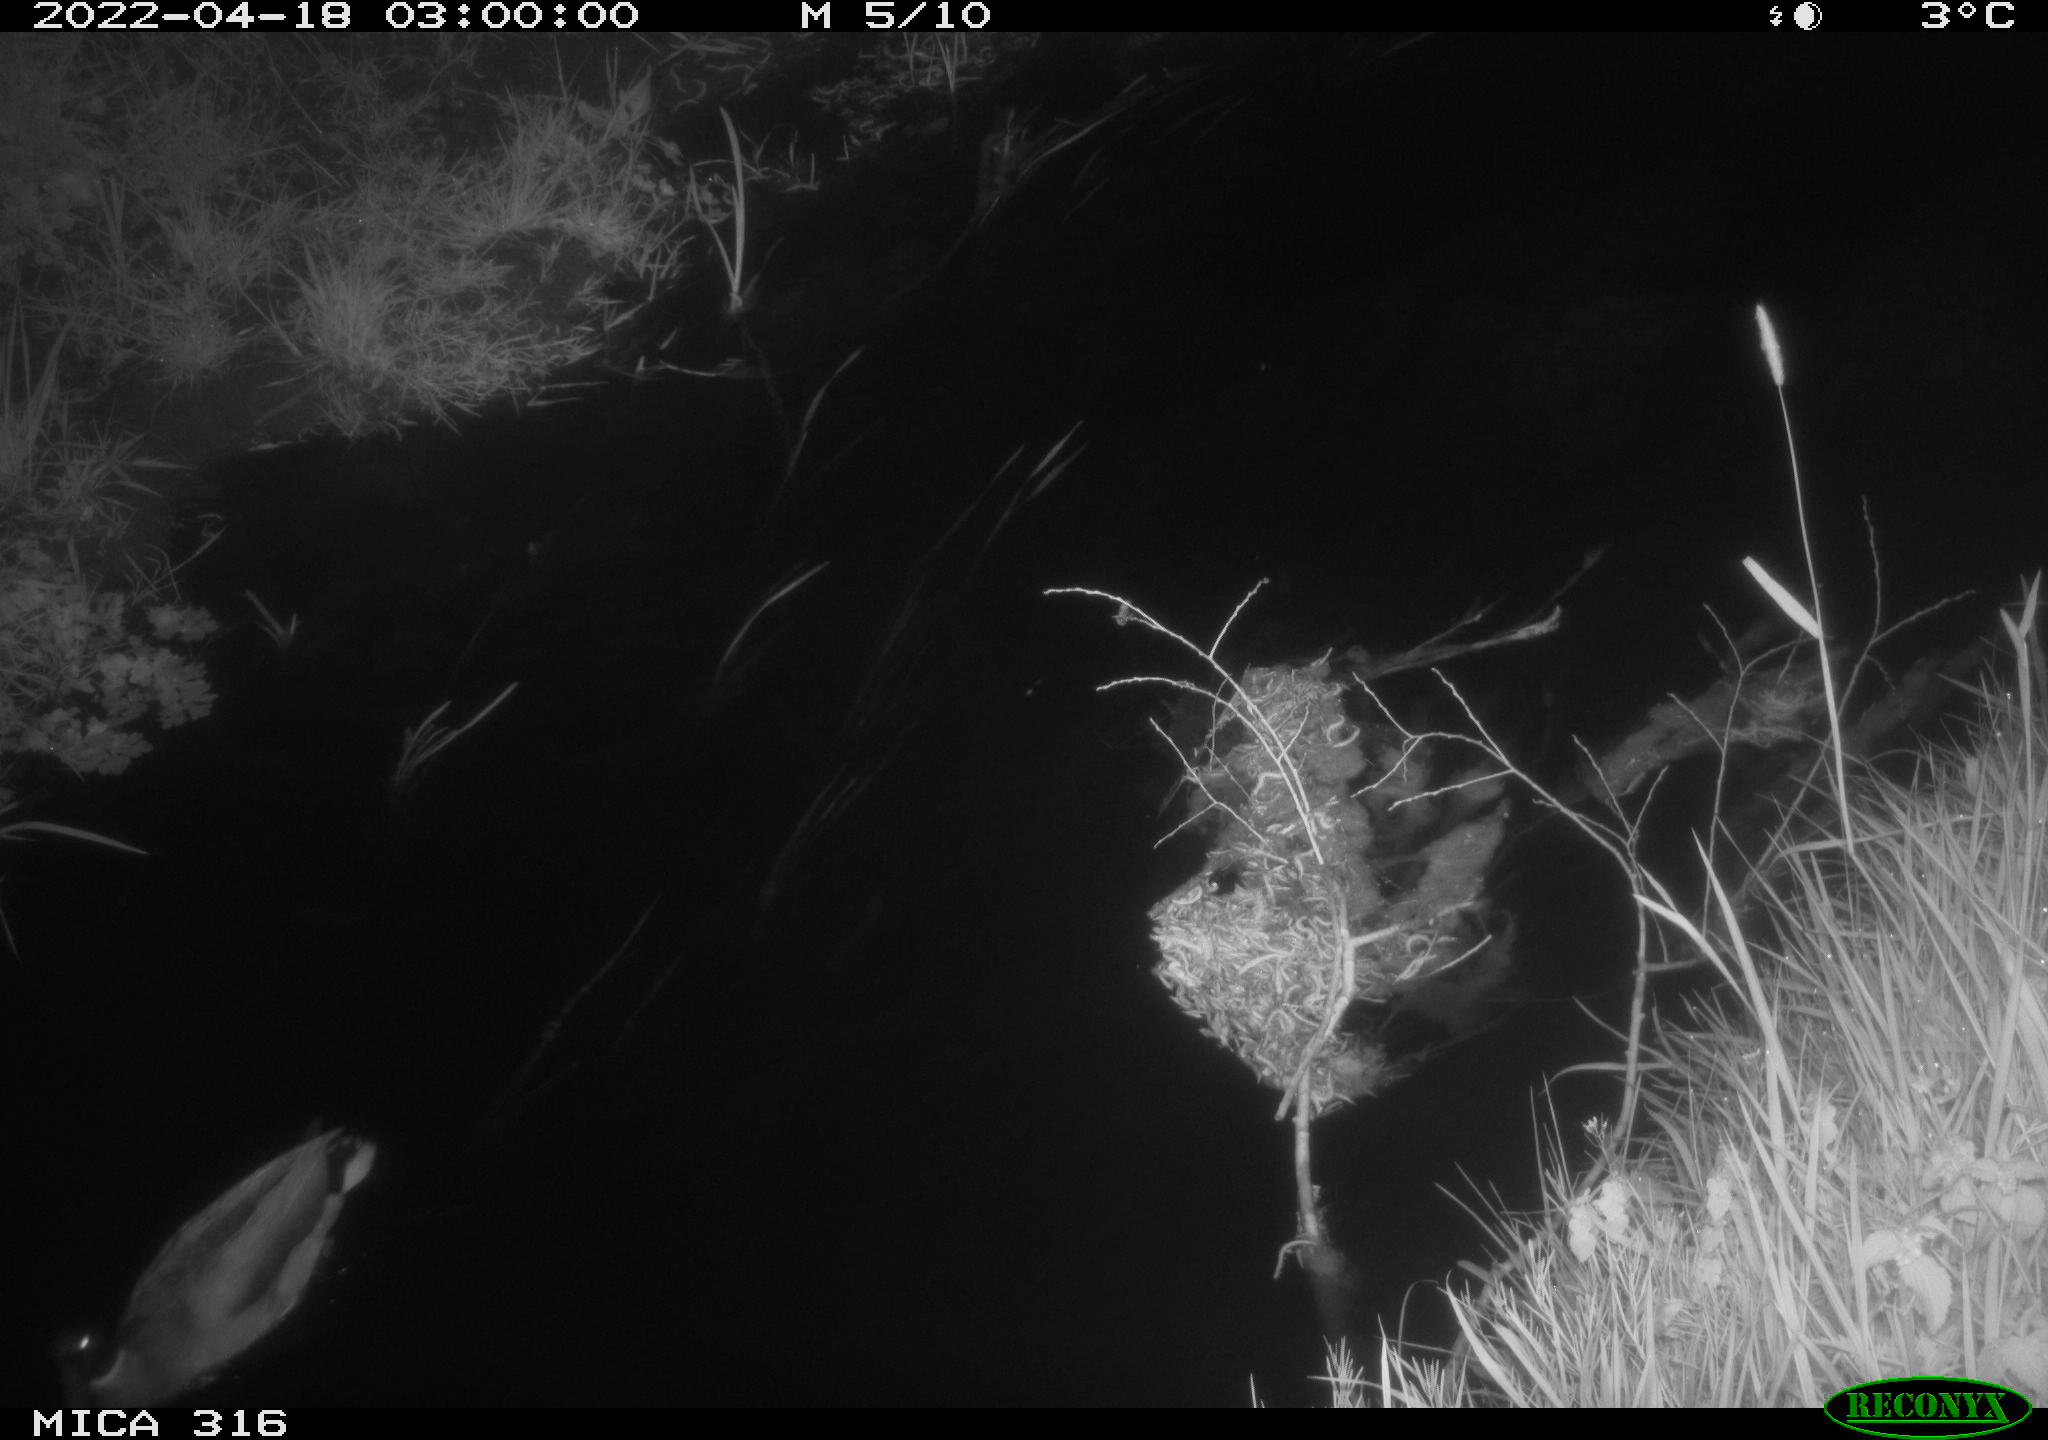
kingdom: Animalia
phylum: Chordata
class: Aves
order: Anseriformes
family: Anatidae
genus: Anas
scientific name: Anas platyrhynchos
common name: Mallard
